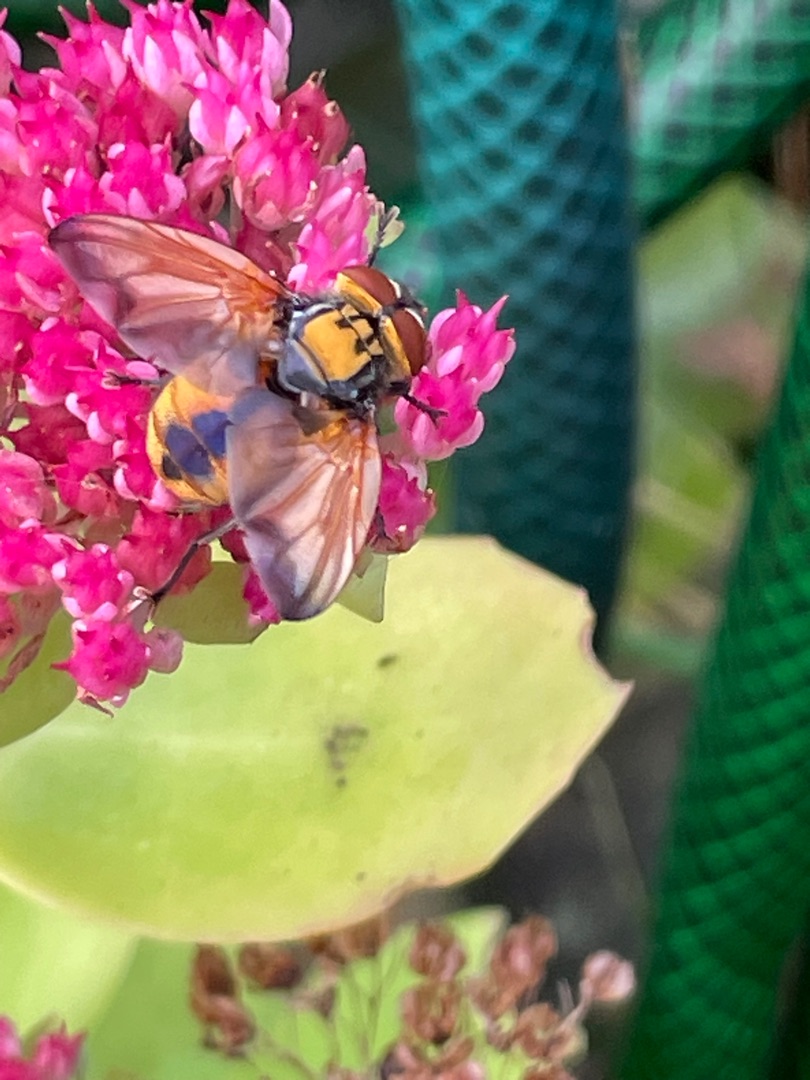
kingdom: Animalia
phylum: Arthropoda
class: Insecta
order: Diptera
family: Tachinidae
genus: Phasia
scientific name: Phasia aurigera
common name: Gylden pragtsnylteflue
